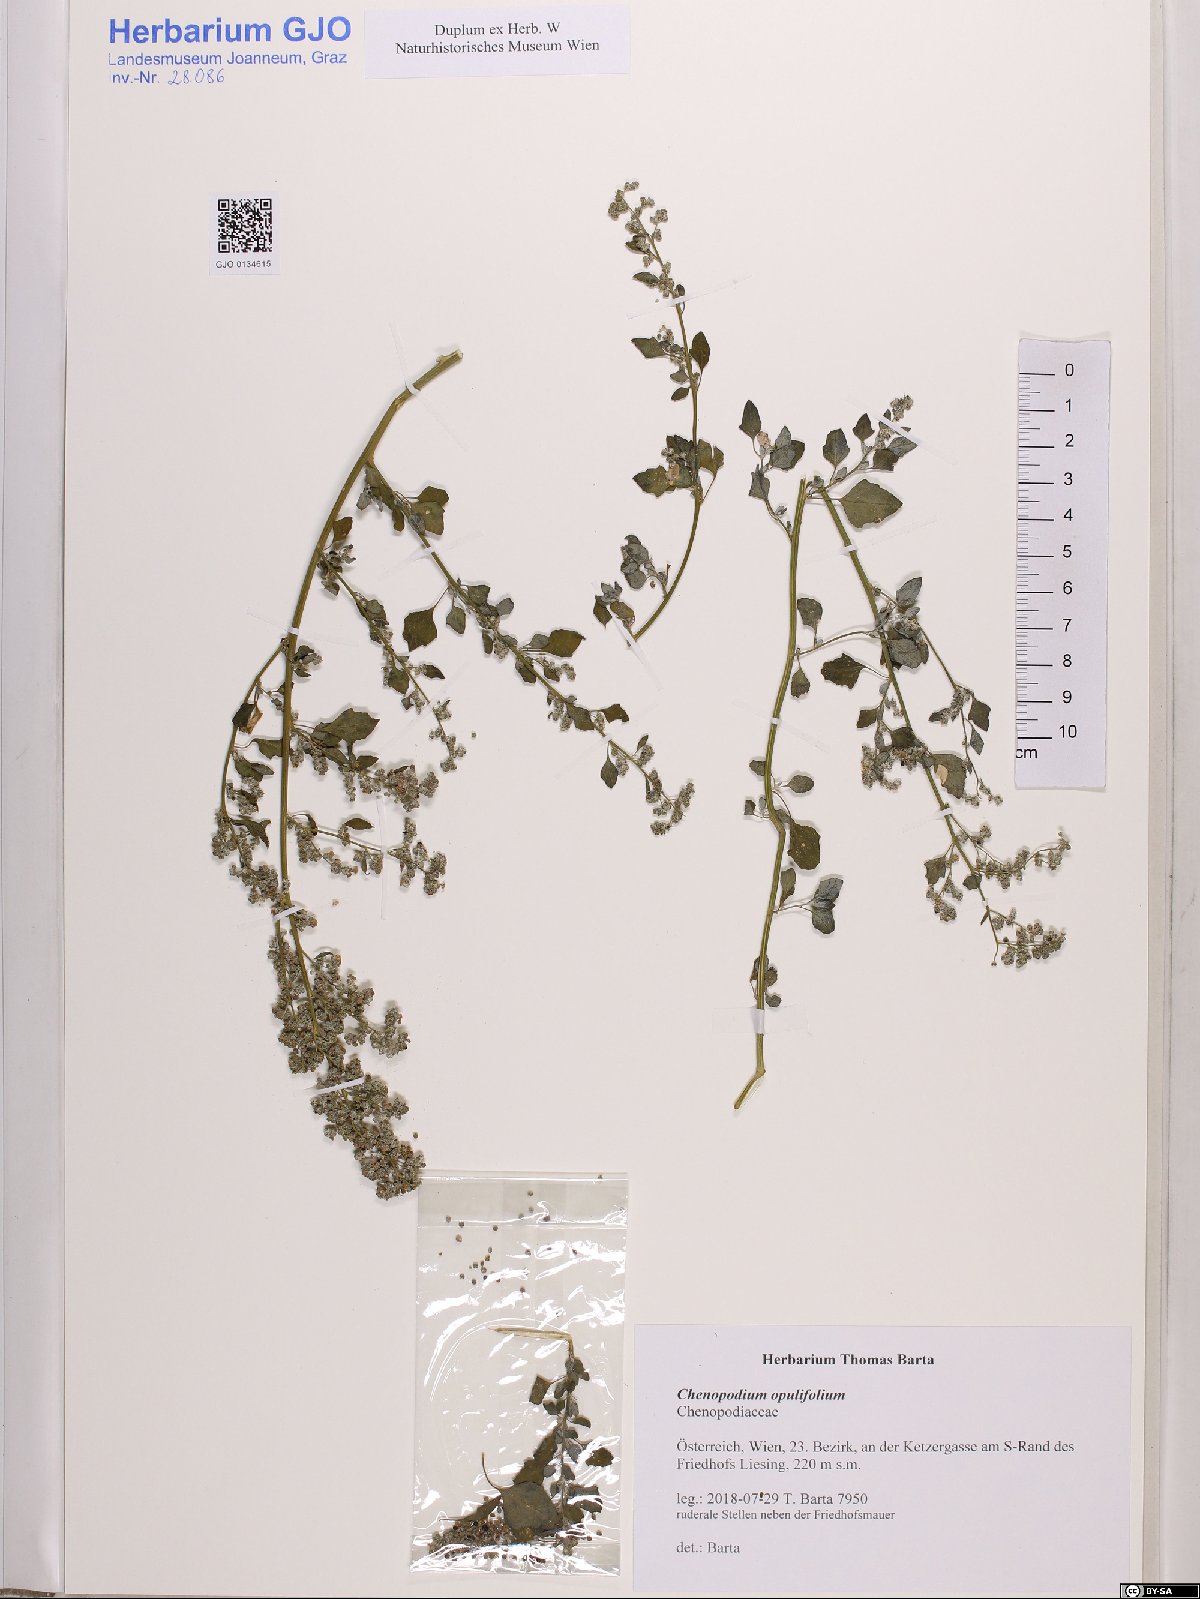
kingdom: Plantae
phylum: Tracheophyta
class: Magnoliopsida
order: Caryophyllales
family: Amaranthaceae
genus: Chenopodium
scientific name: Chenopodium opulifolium
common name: Grey goosefoot
